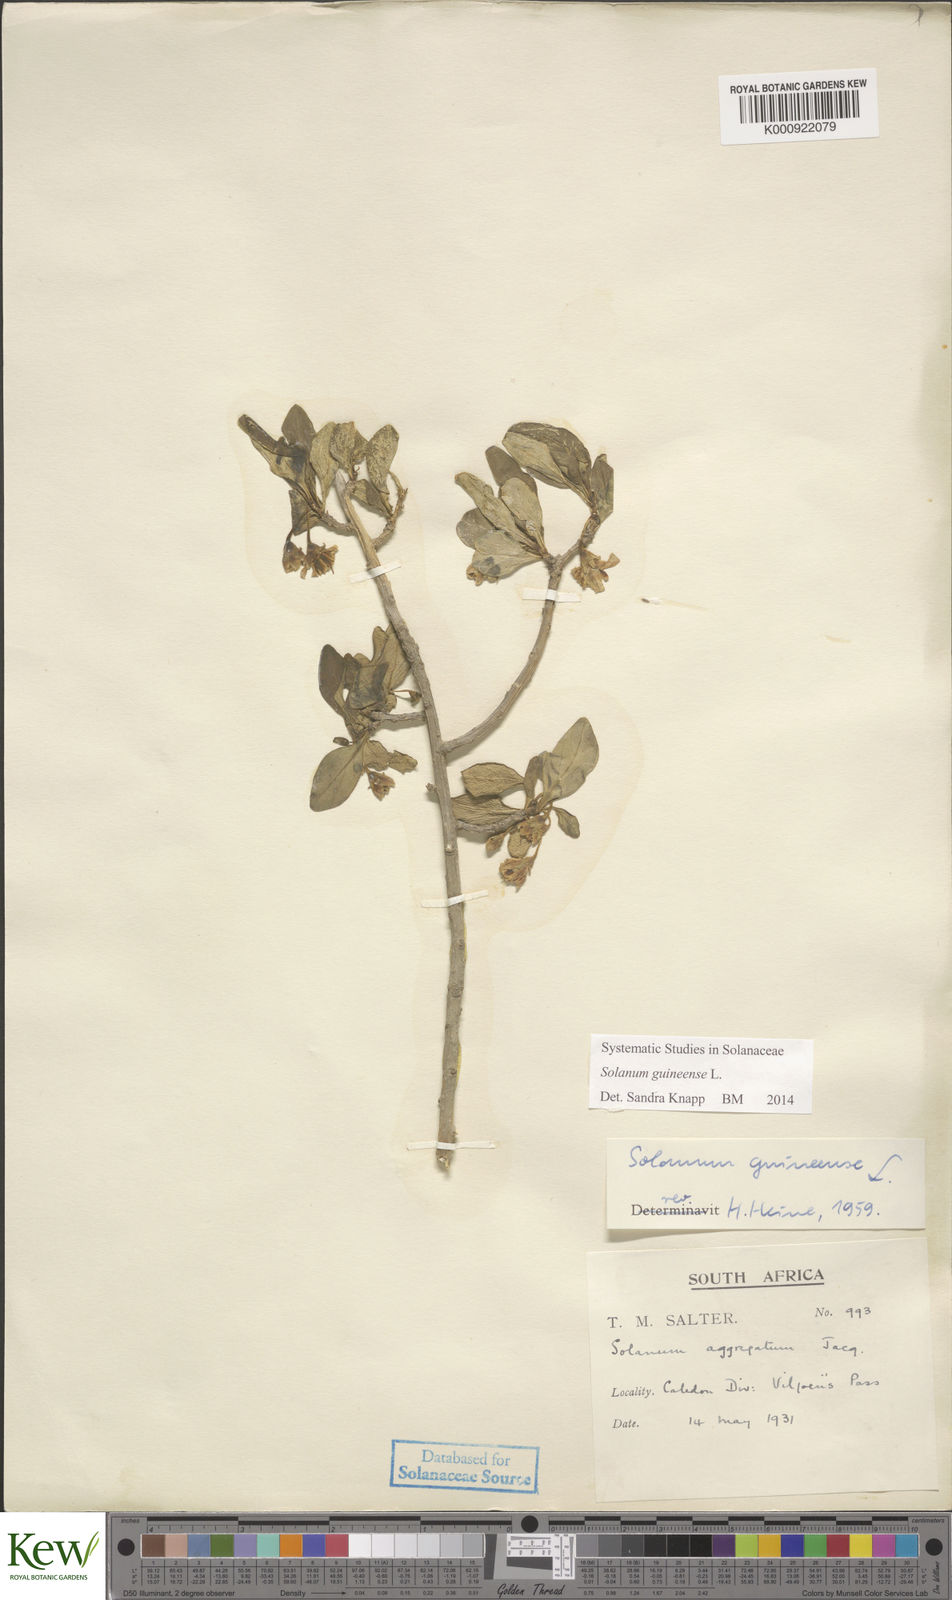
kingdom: Plantae
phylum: Tracheophyta
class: Magnoliopsida
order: Solanales
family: Solanaceae
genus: Solanum
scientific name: Solanum guineense
